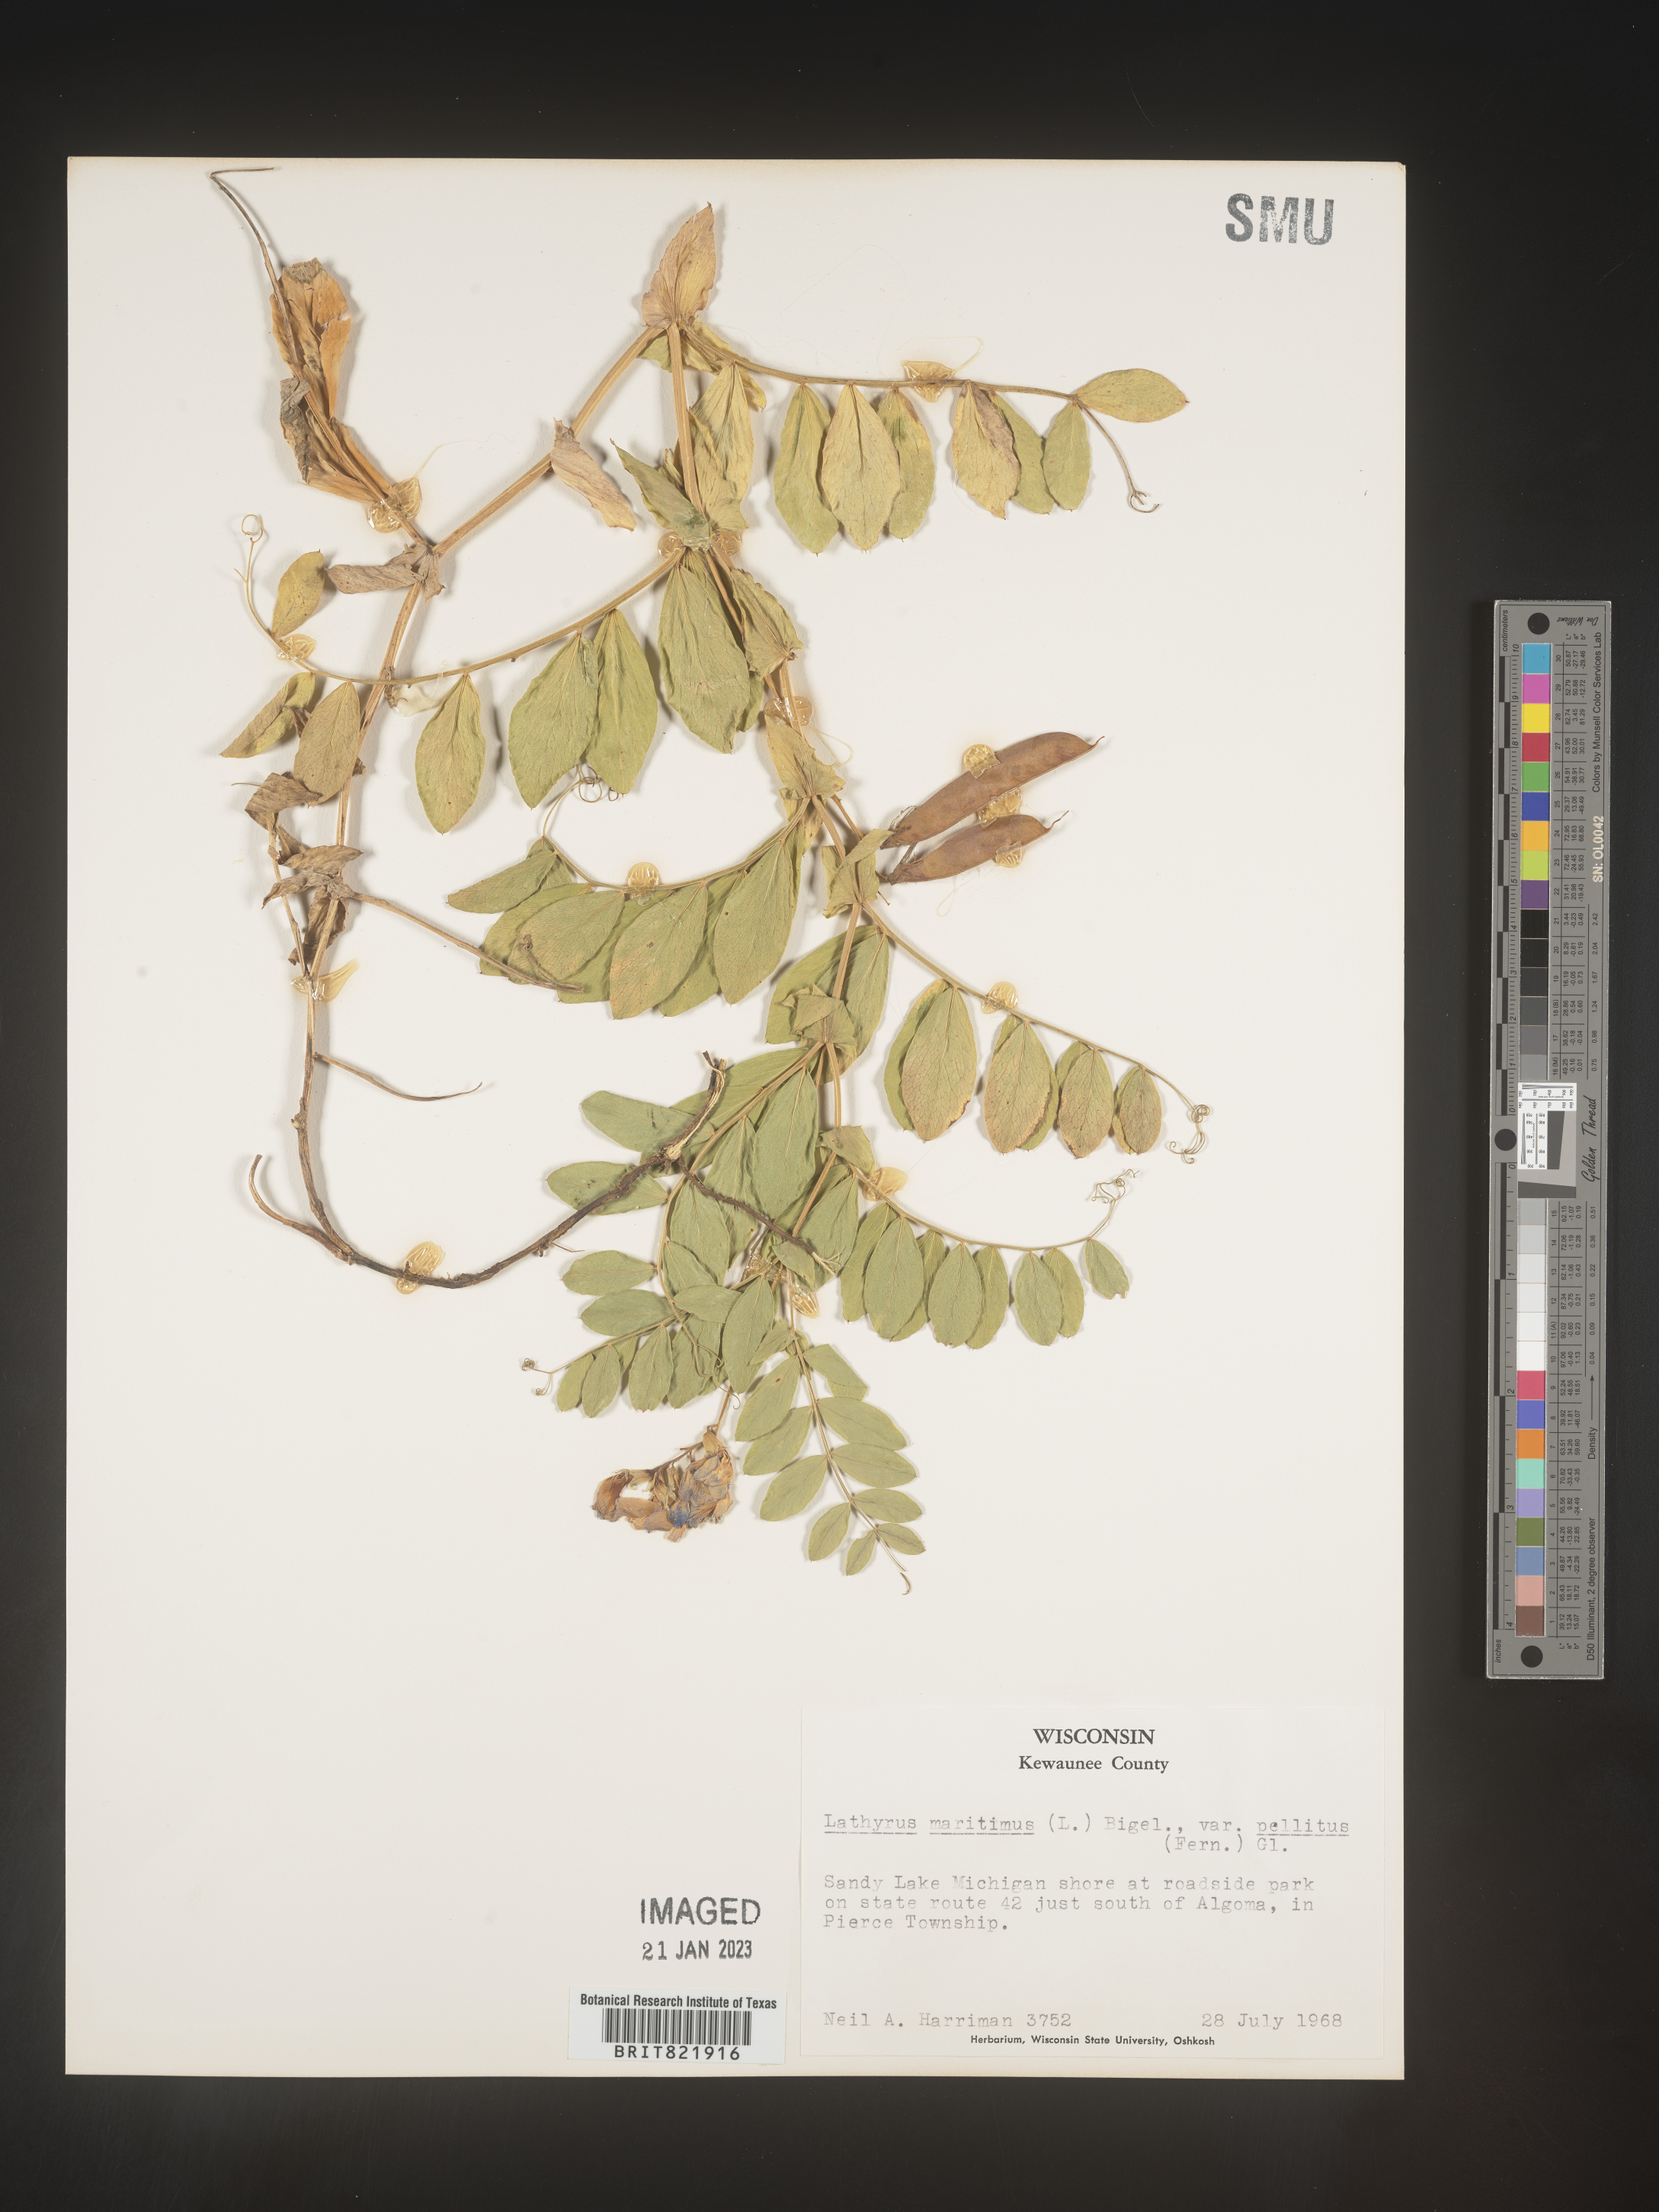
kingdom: Plantae
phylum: Tracheophyta
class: Magnoliopsida
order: Fabales
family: Fabaceae
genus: Lathyrus
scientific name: Lathyrus
